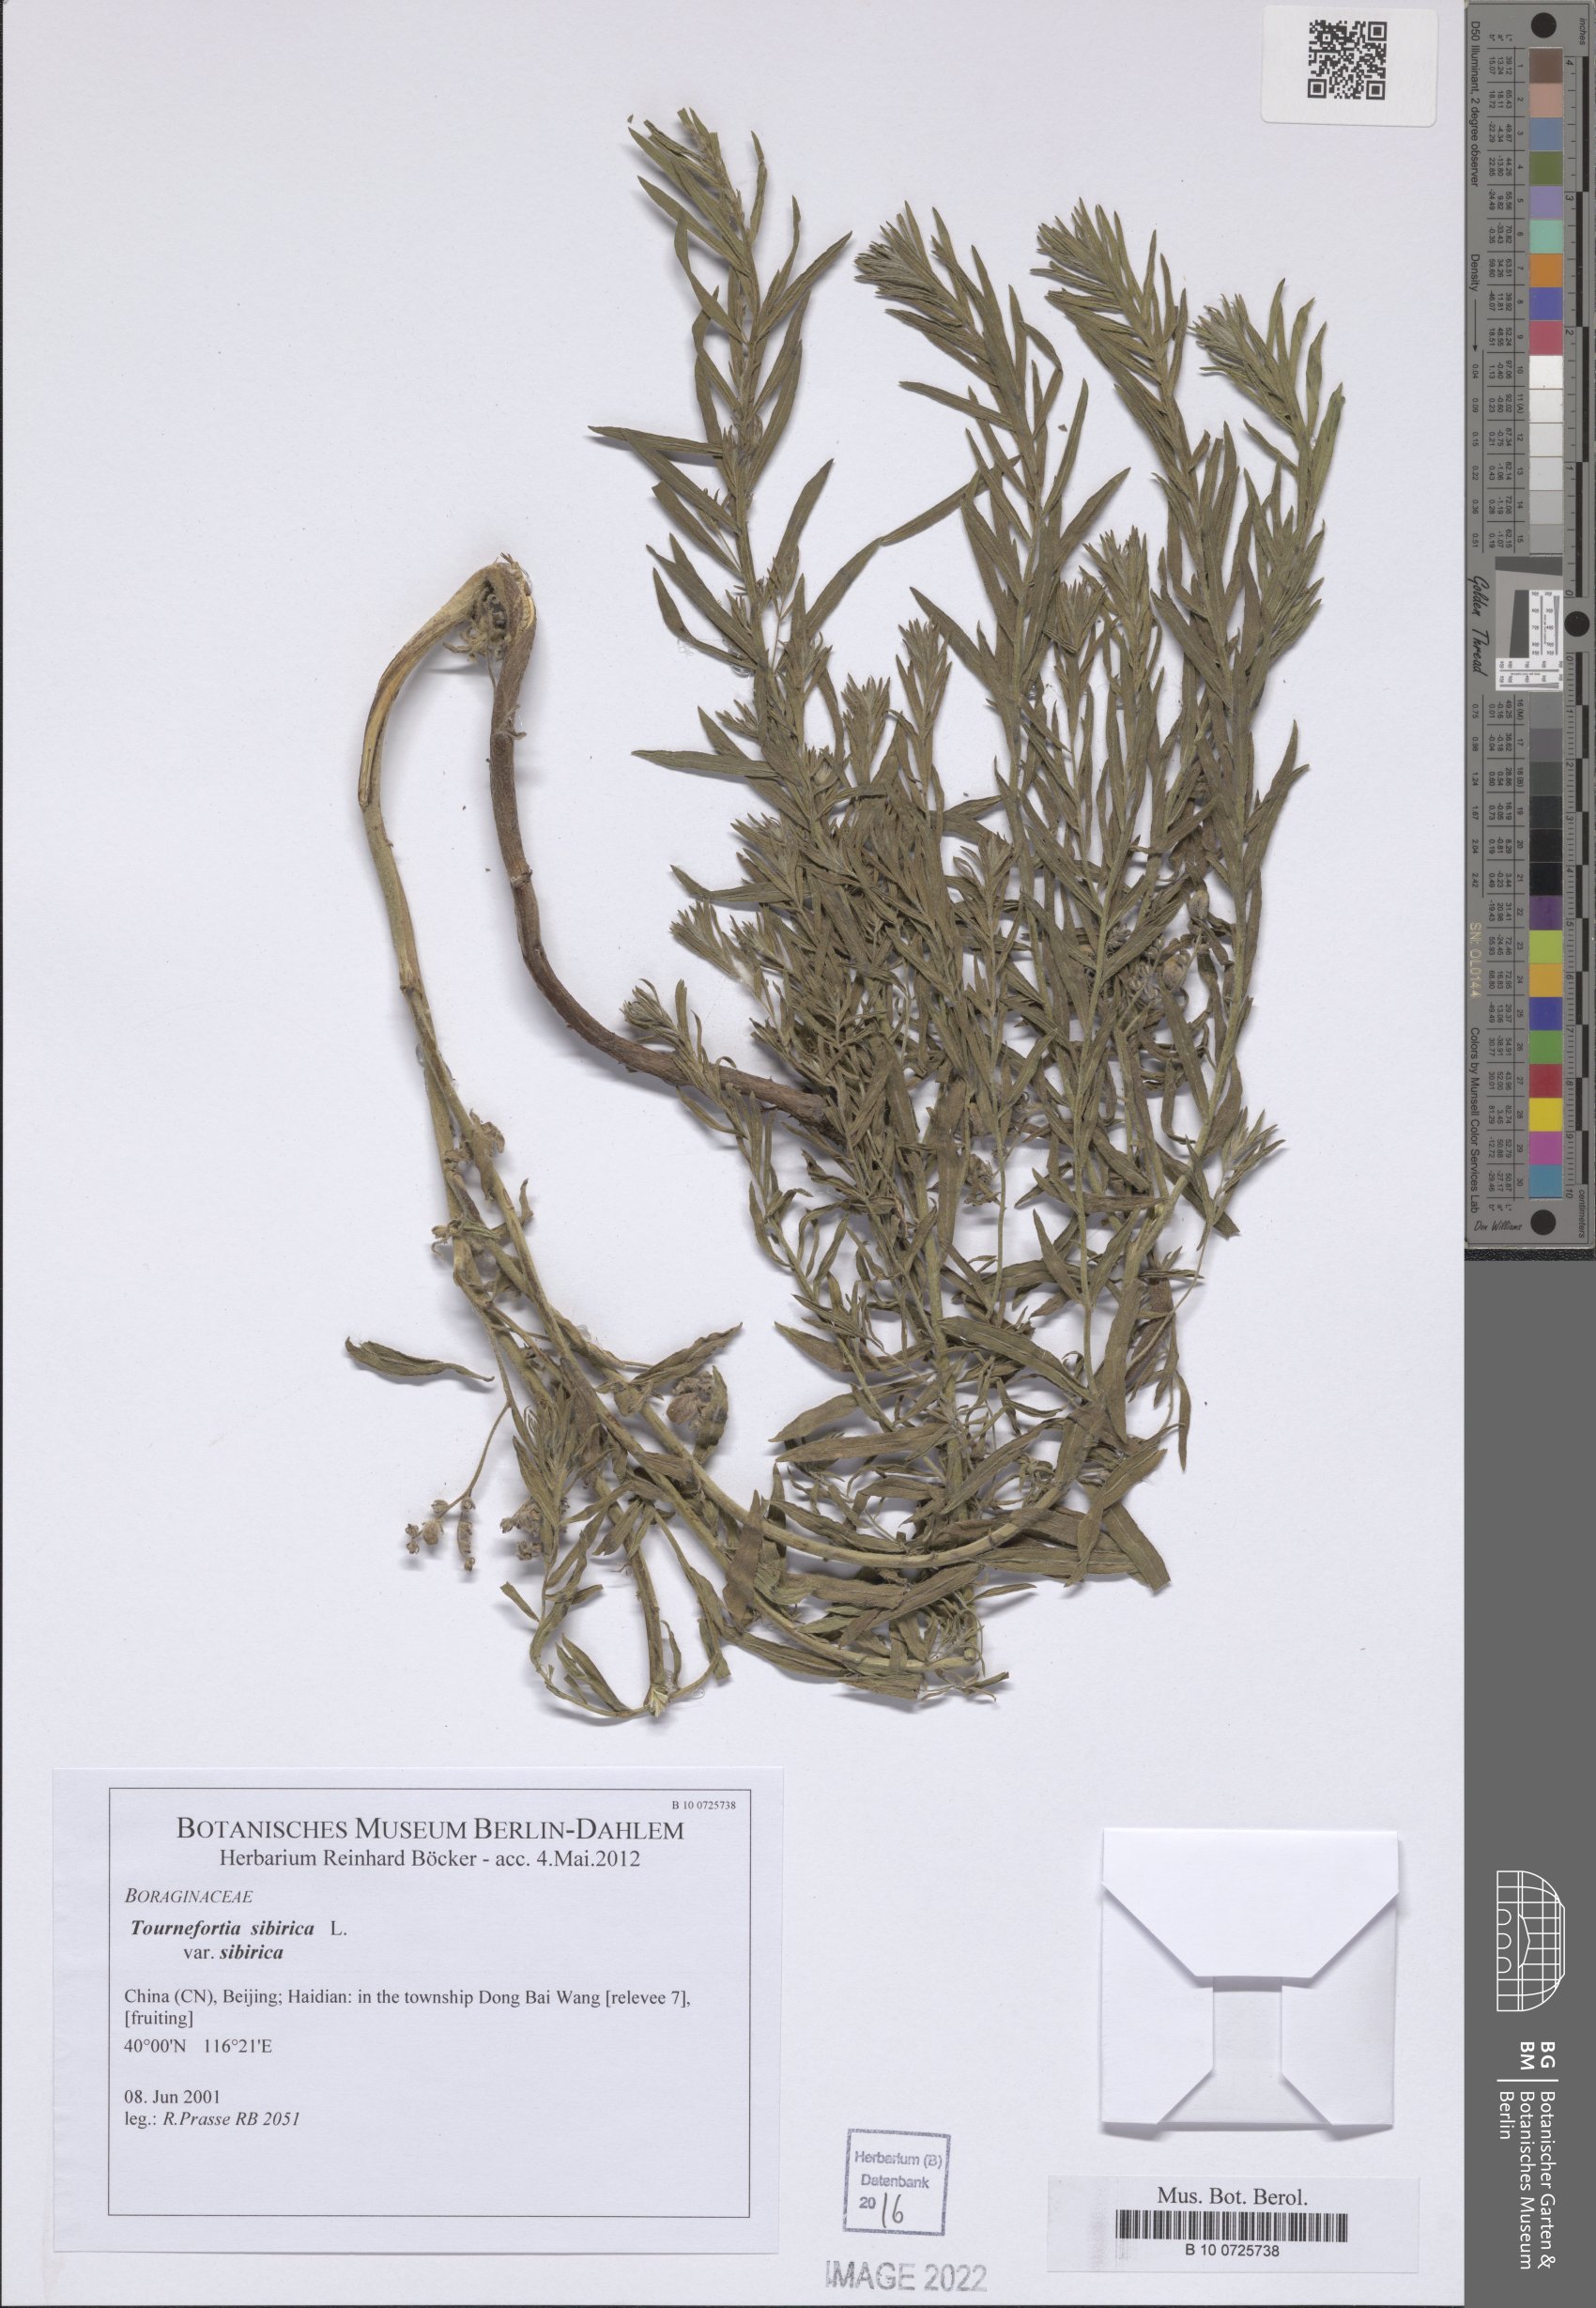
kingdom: Plantae
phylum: Tracheophyta
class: Magnoliopsida
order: Boraginales
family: Heliotropiaceae
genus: Tournefortia
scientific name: Tournefortia sibirica
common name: Siberian sea rosemary
